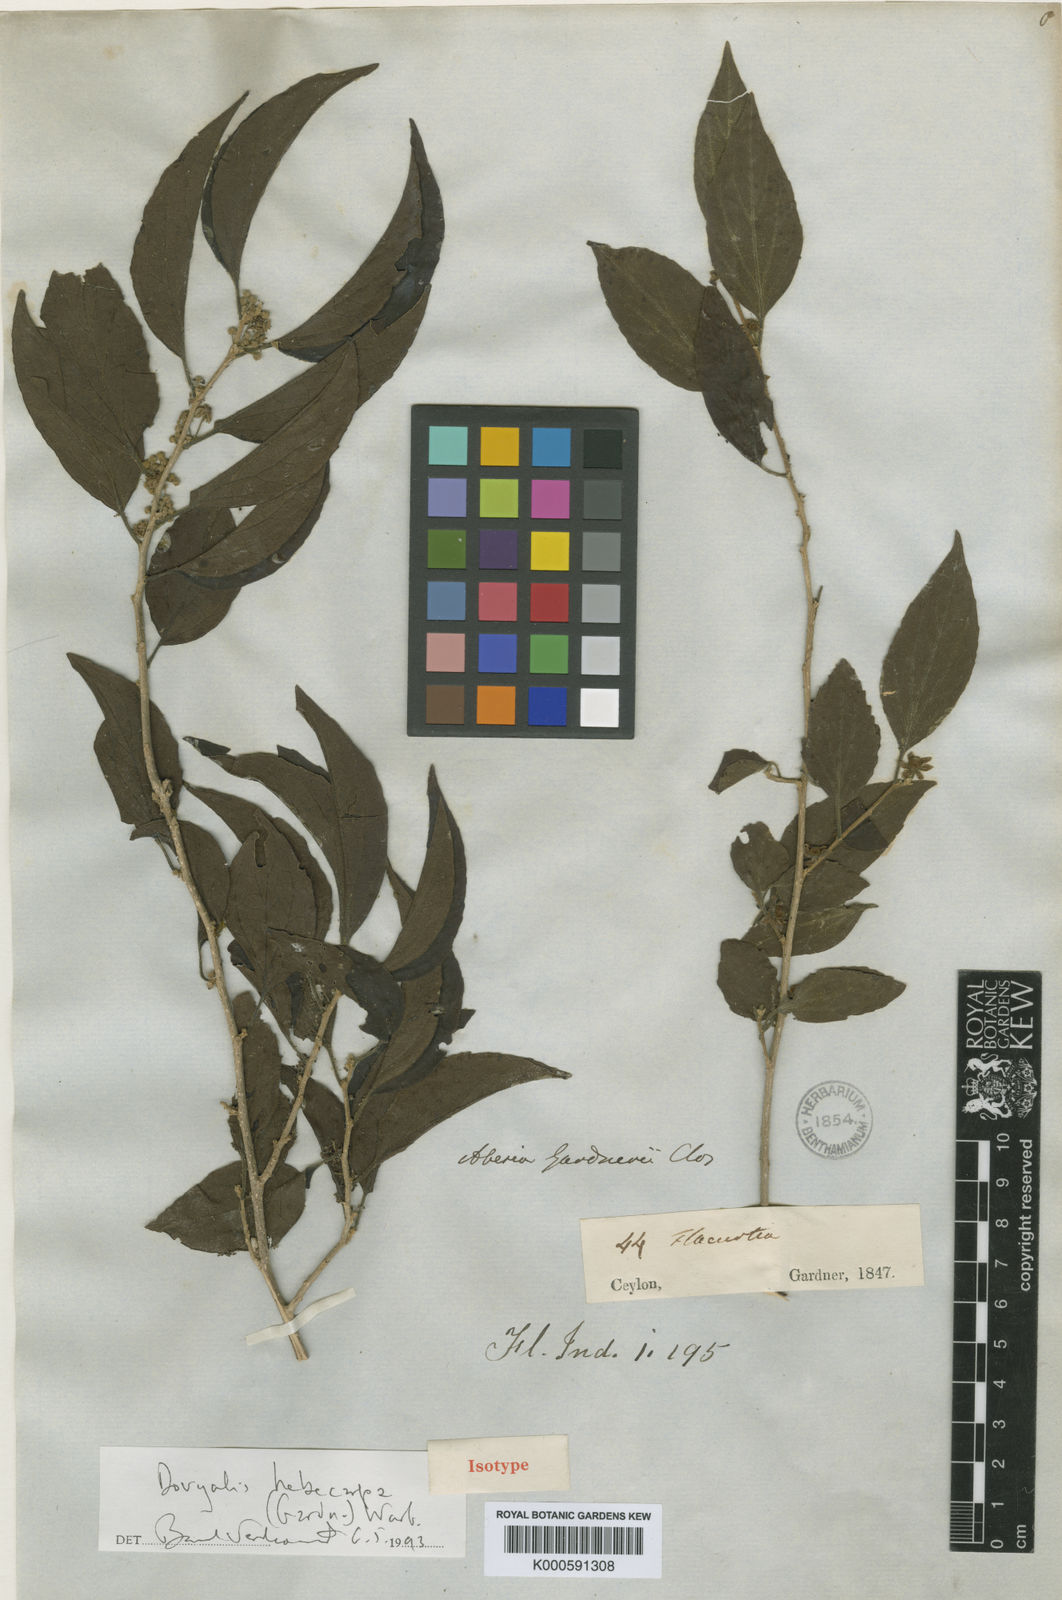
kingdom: Plantae
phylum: Tracheophyta
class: Magnoliopsida
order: Malpighiales
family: Salicaceae
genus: Dovyalis
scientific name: Dovyalis hebecarpa
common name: Ceylon gooseberry
